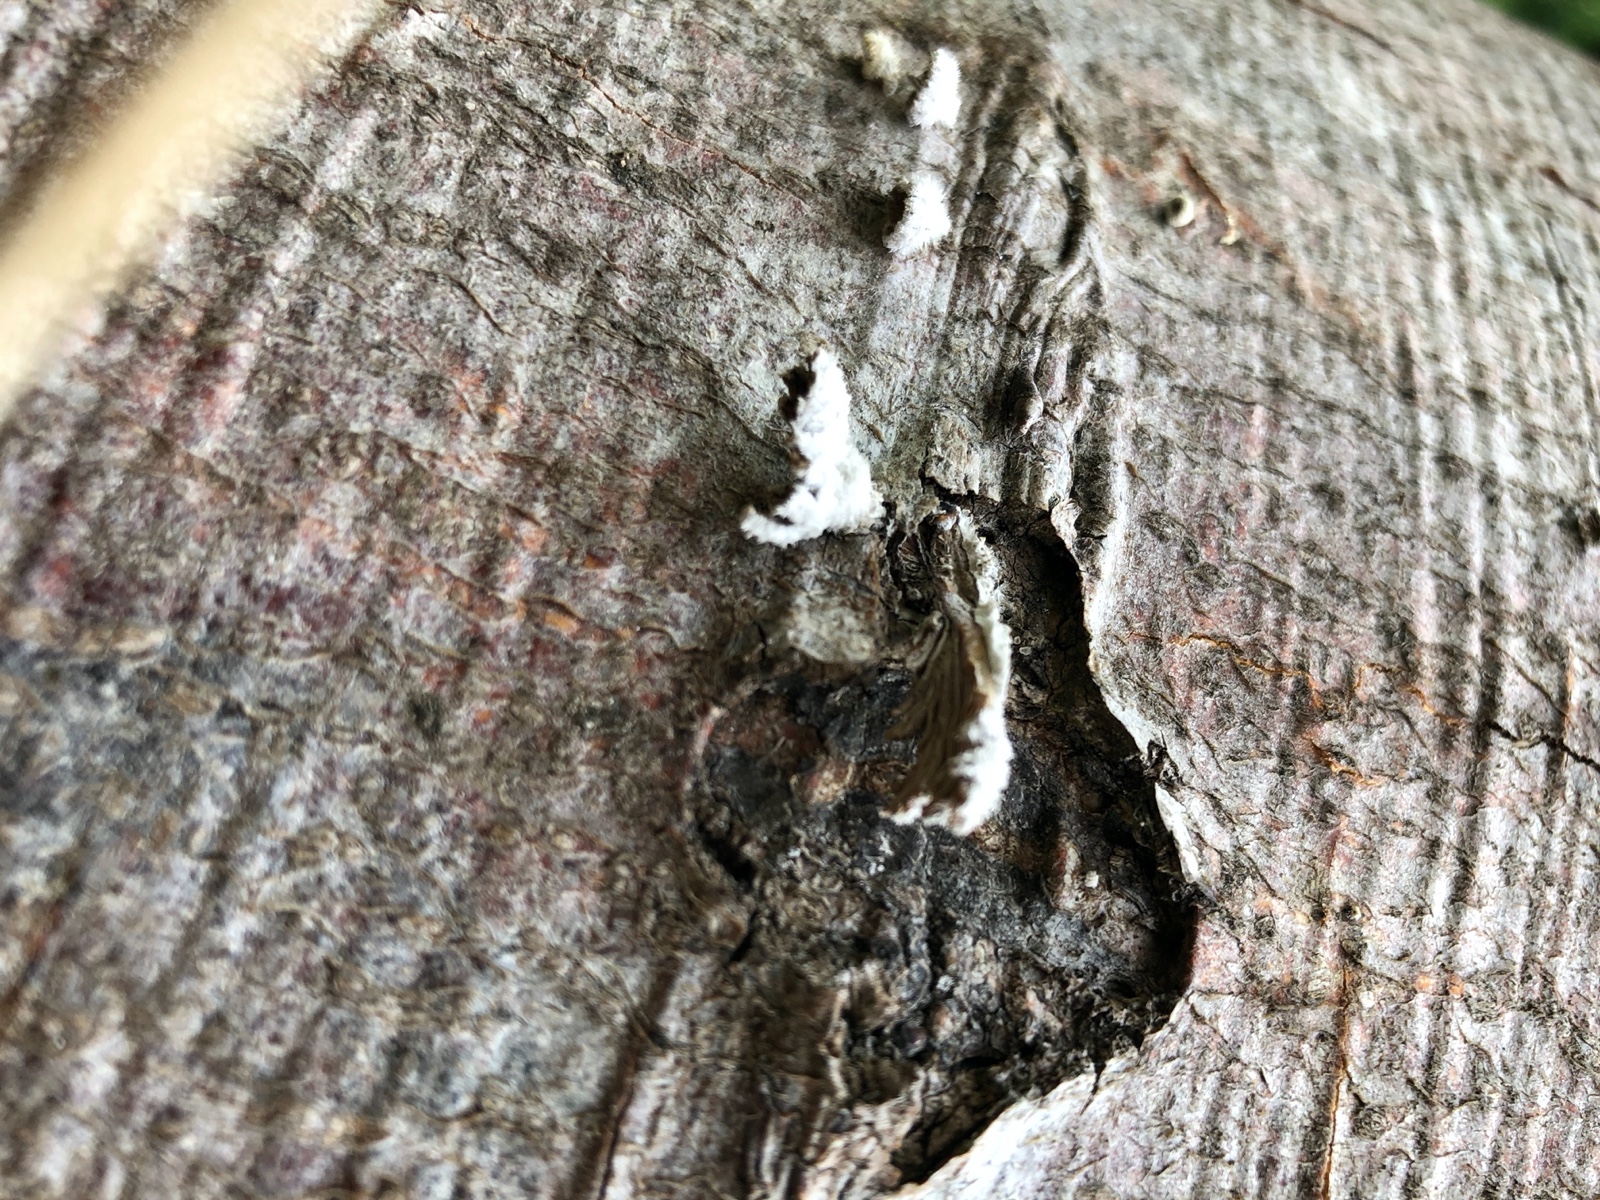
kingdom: Fungi
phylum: Basidiomycota
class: Agaricomycetes
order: Agaricales
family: Schizophyllaceae
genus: Schizophyllum
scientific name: Schizophyllum commune
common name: kløvblad
